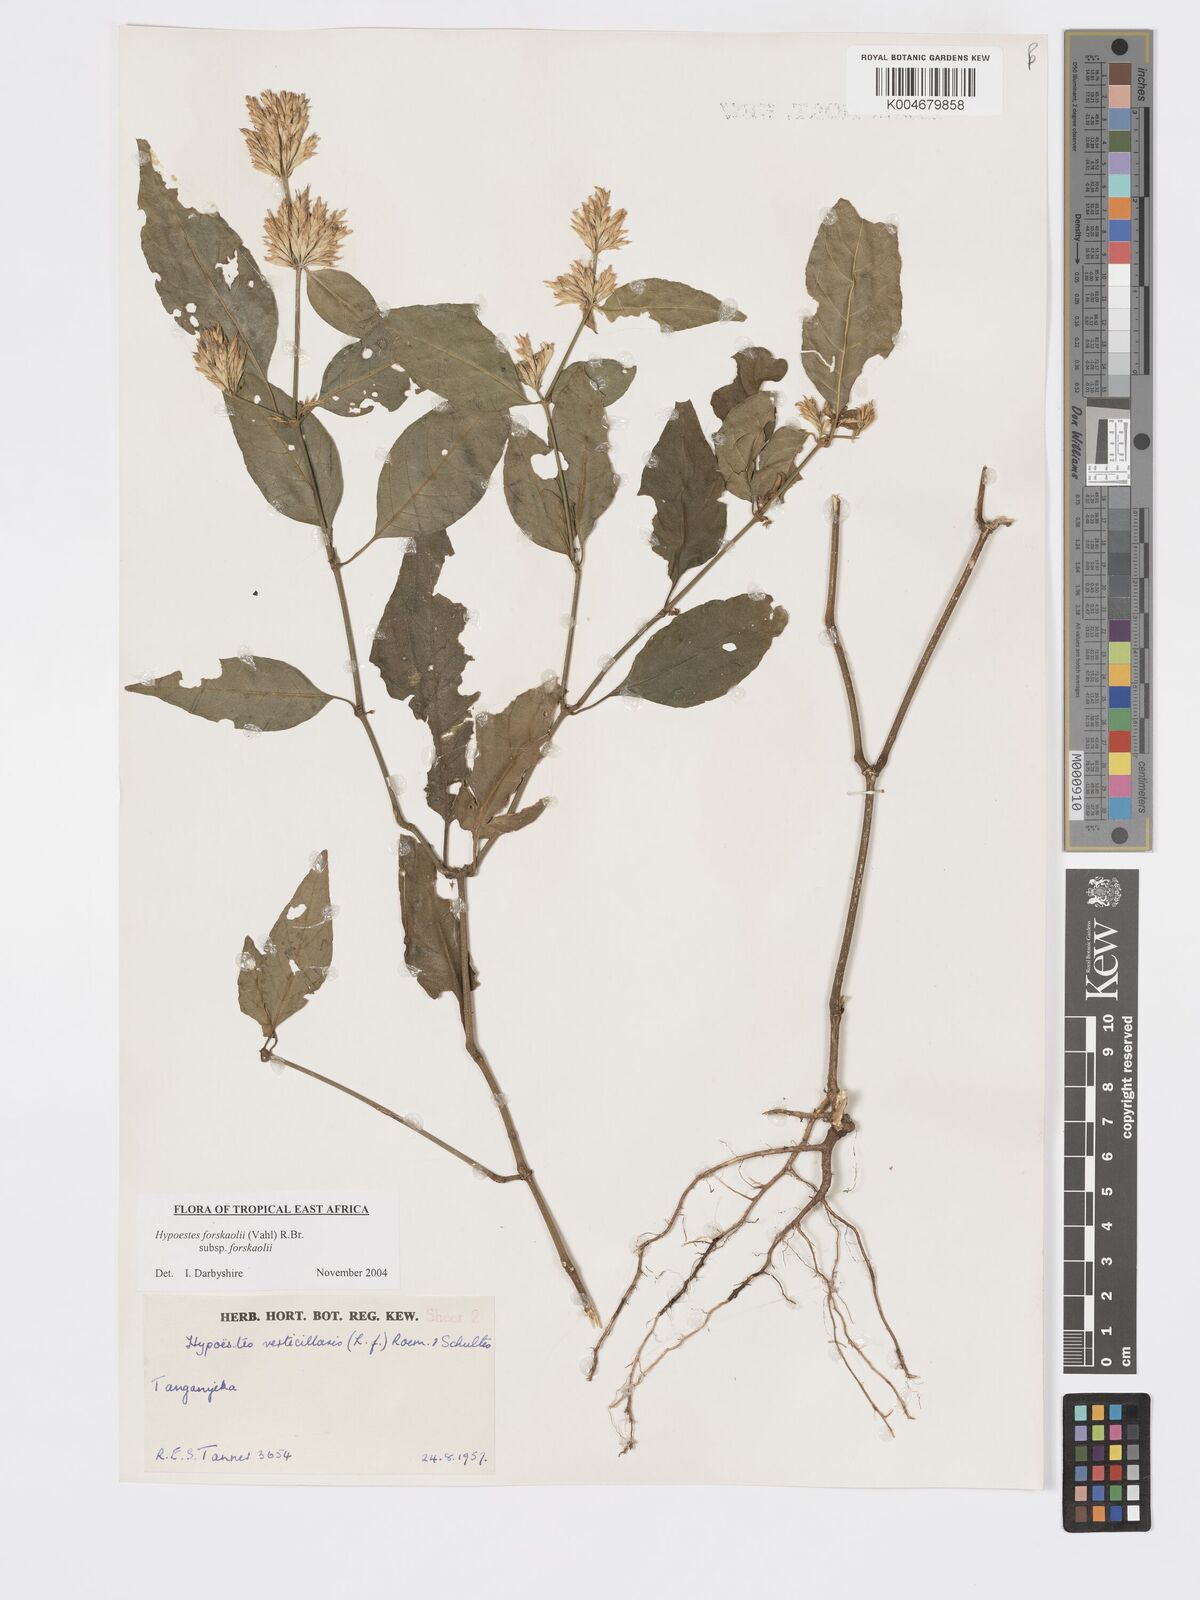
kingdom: Plantae
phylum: Tracheophyta
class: Magnoliopsida
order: Lamiales
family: Acanthaceae
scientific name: Acanthaceae
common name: Acanthaceae
